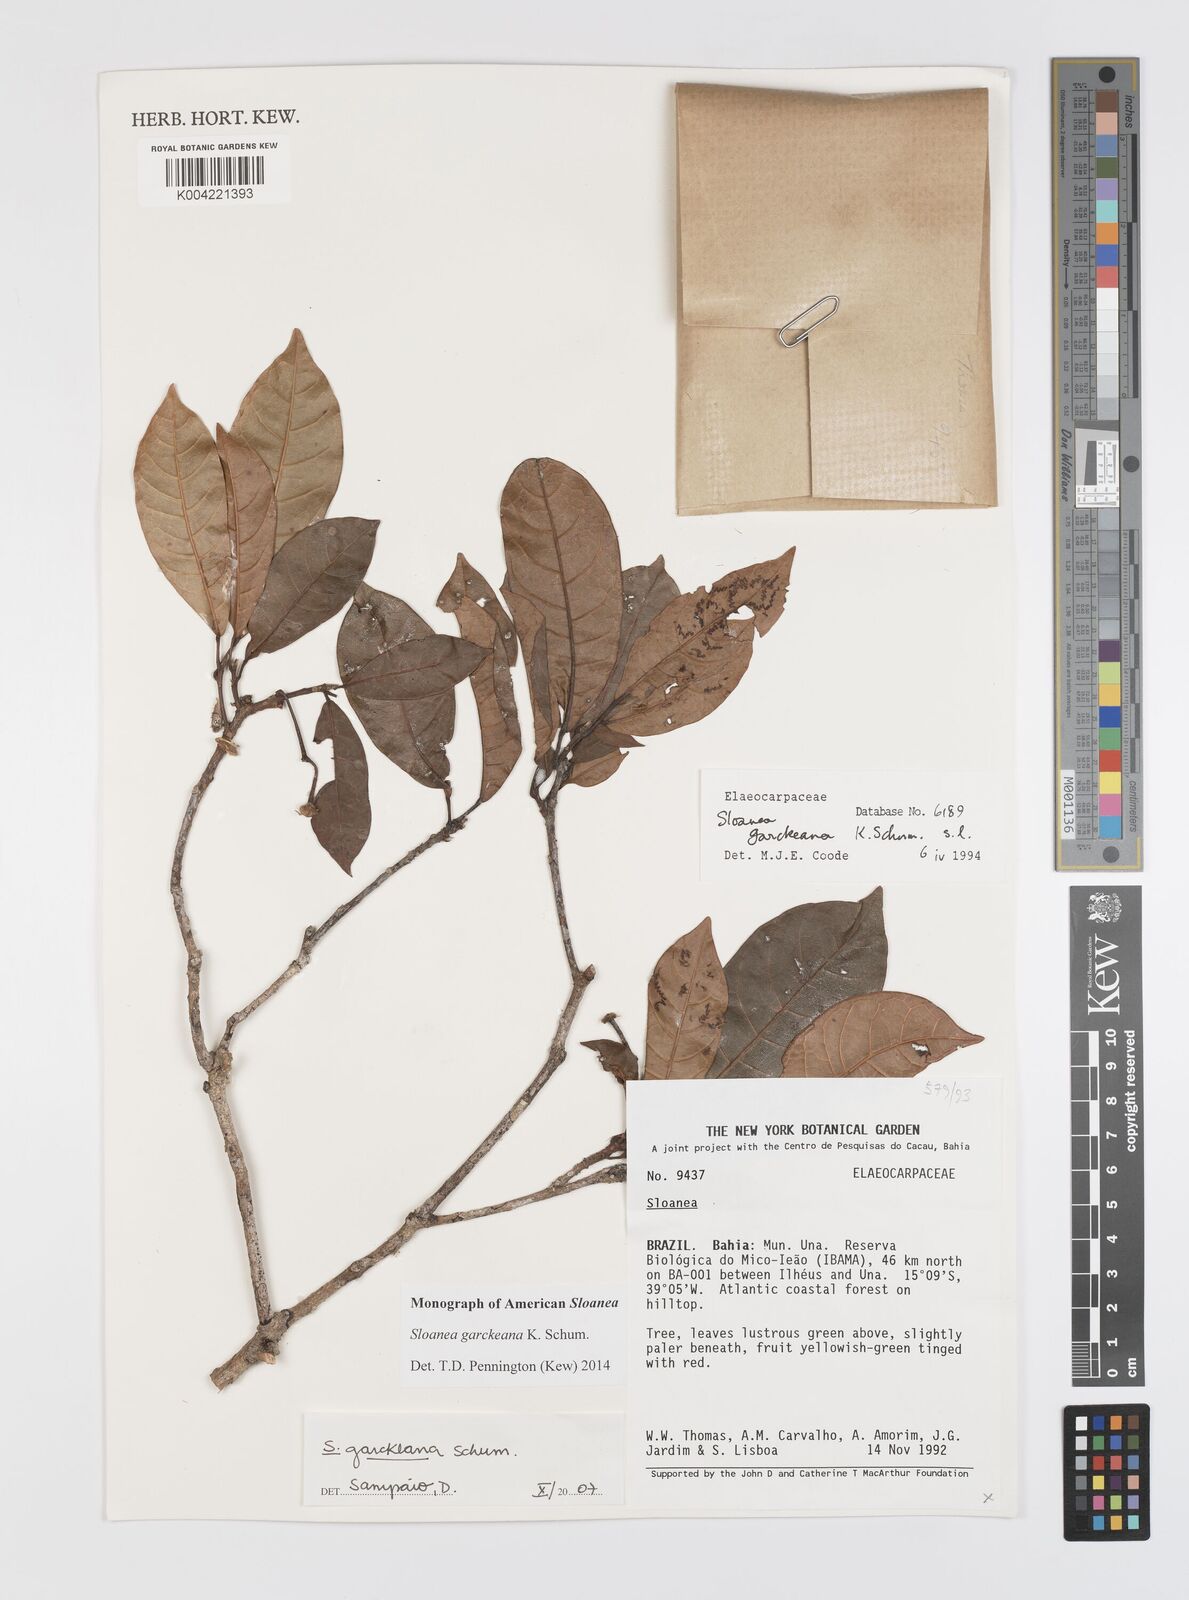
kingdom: Plantae
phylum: Tracheophyta
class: Magnoliopsida
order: Oxalidales
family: Elaeocarpaceae
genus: Sloanea
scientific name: Sloanea garckeana
